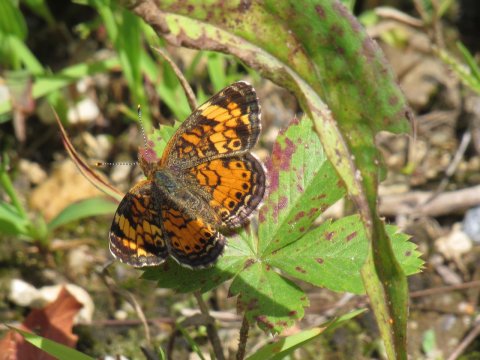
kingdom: Animalia
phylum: Arthropoda
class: Insecta
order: Lepidoptera
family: Nymphalidae
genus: Phyciodes
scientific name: Phyciodes tharos
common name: Pearl Crescent
